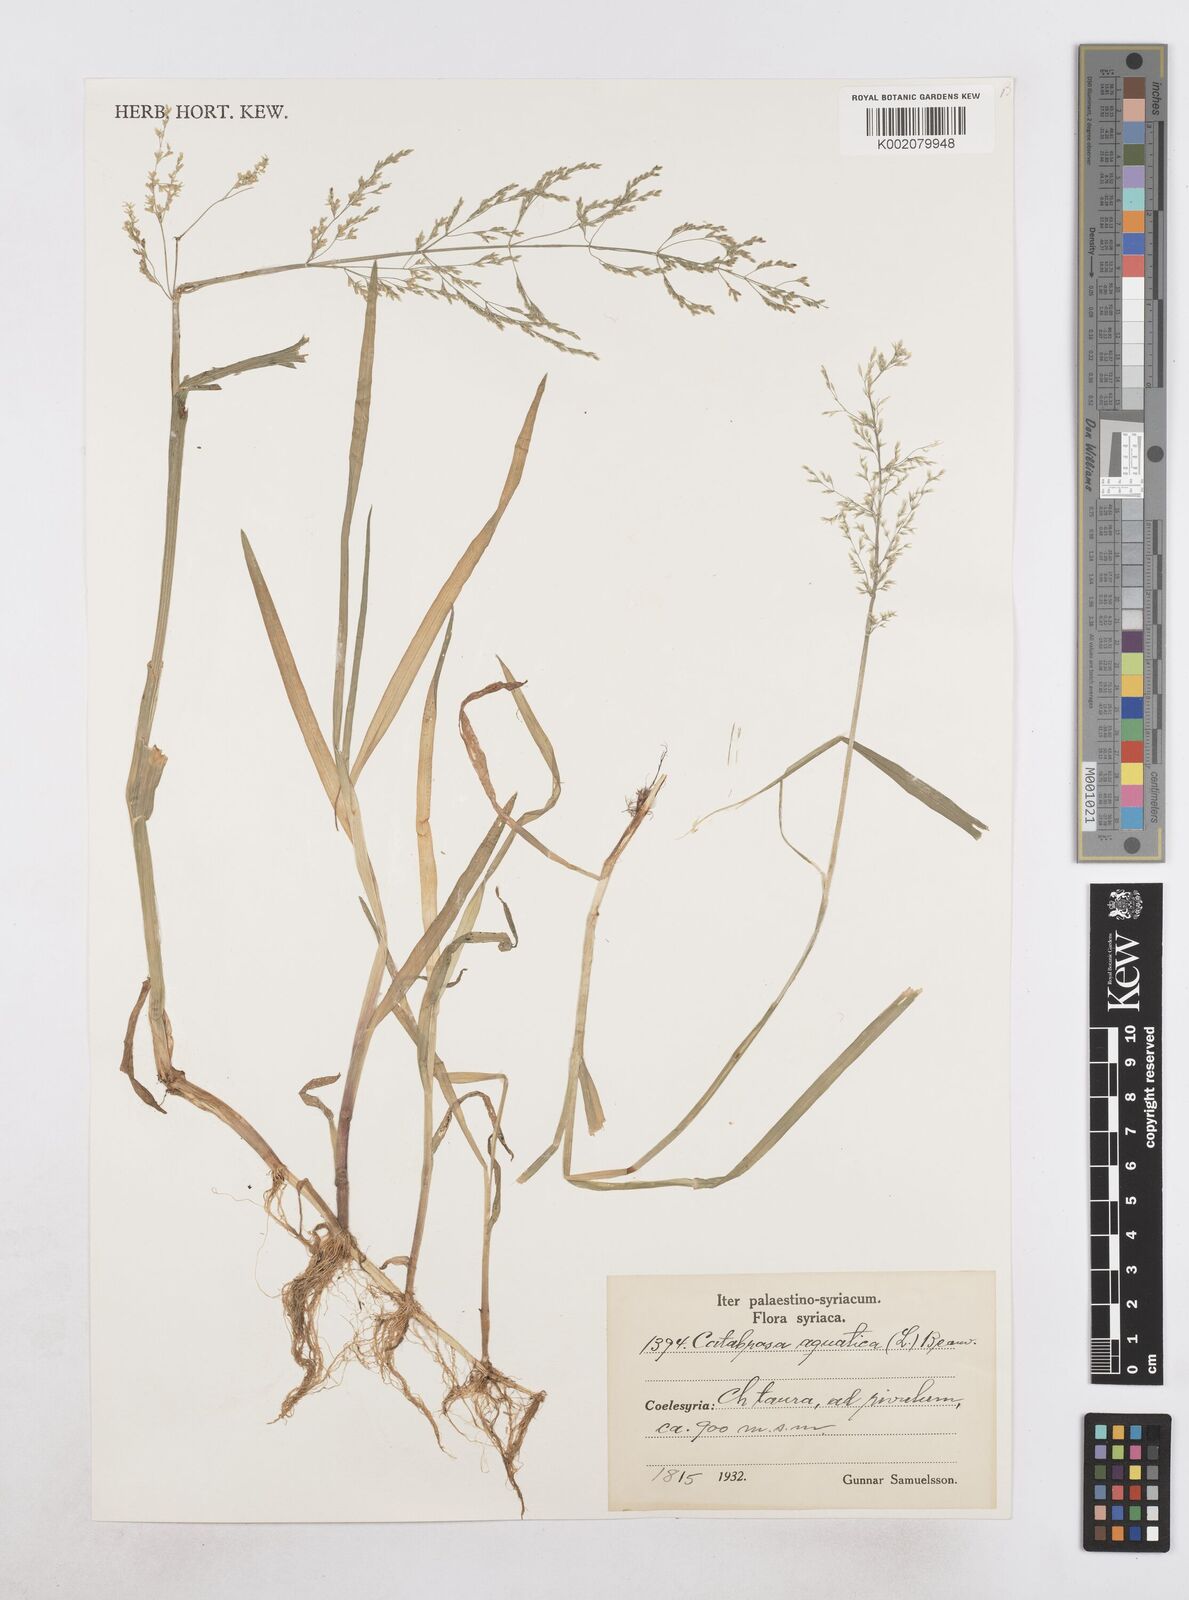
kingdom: Plantae
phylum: Tracheophyta
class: Liliopsida
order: Poales
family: Poaceae
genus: Catabrosa
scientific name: Catabrosa aquatica
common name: Whorl-grass
